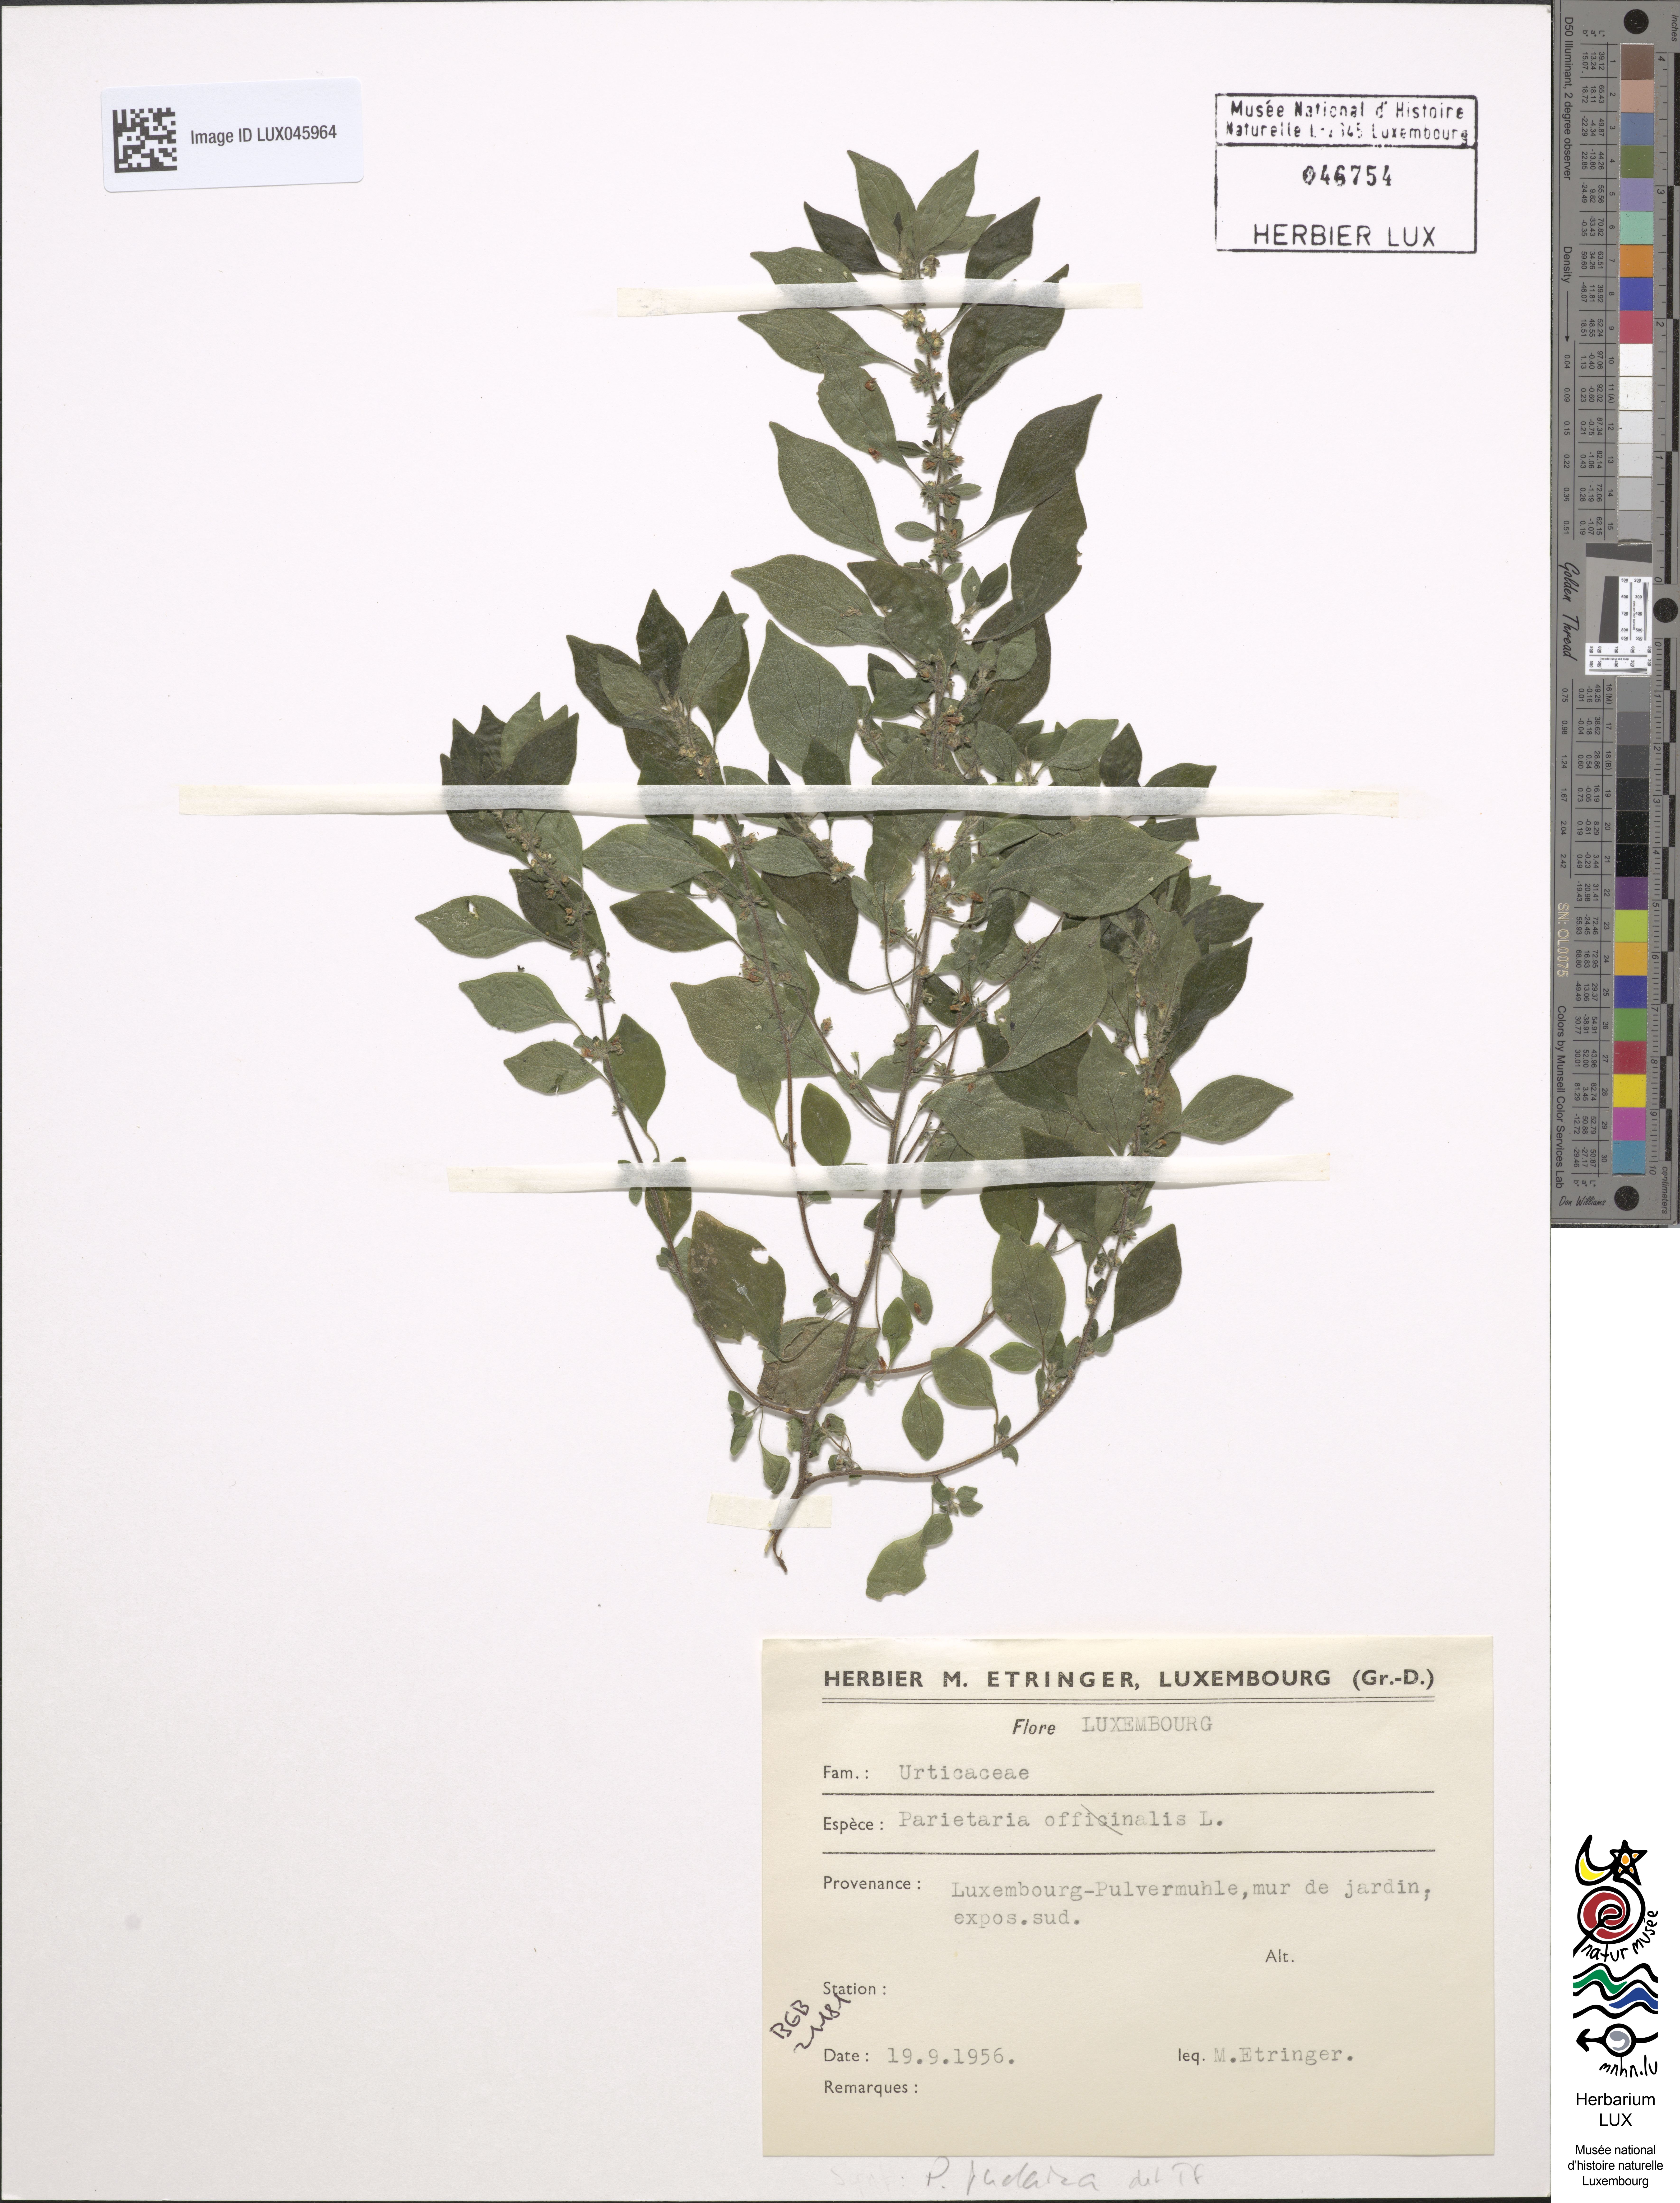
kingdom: Plantae
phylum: Tracheophyta
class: Magnoliopsida
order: Rosales
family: Urticaceae
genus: Parietaria
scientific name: Parietaria judaica
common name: Pellitory-of-the-wall
